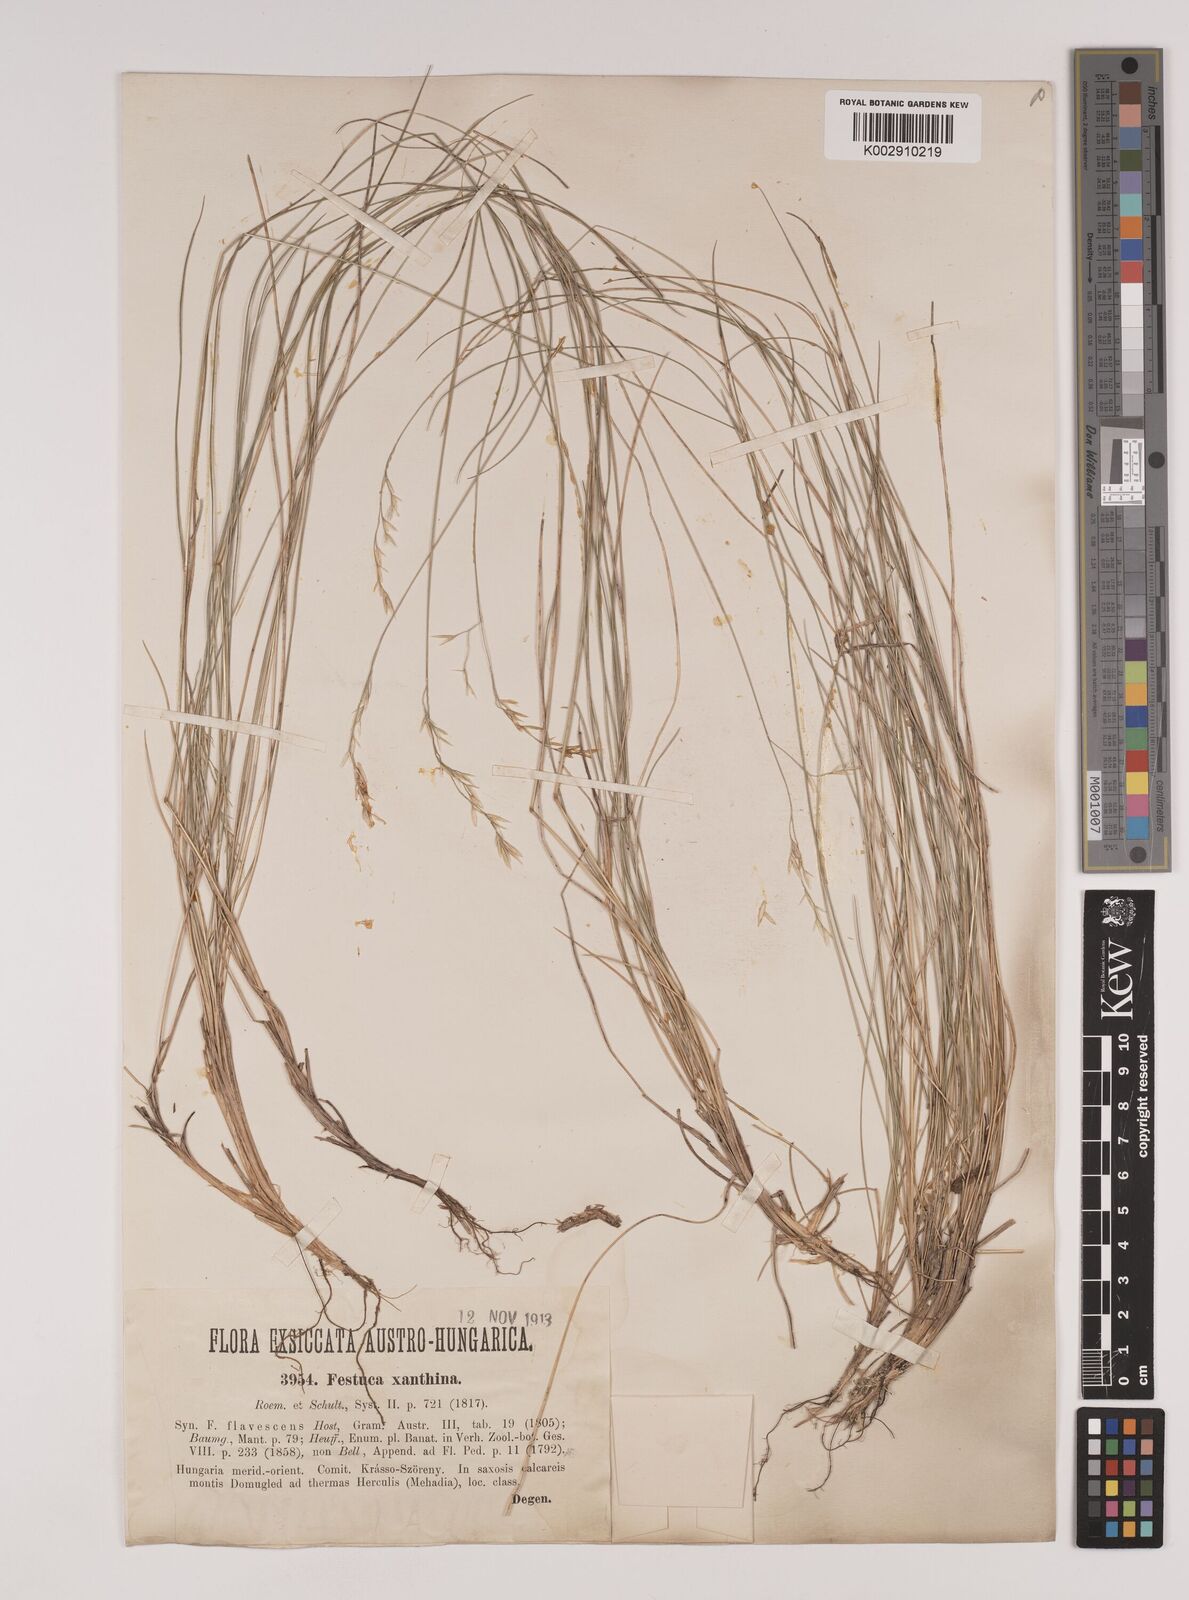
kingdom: Plantae
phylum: Tracheophyta
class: Liliopsida
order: Poales
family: Poaceae
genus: Festuca
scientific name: Festuca xanthina
